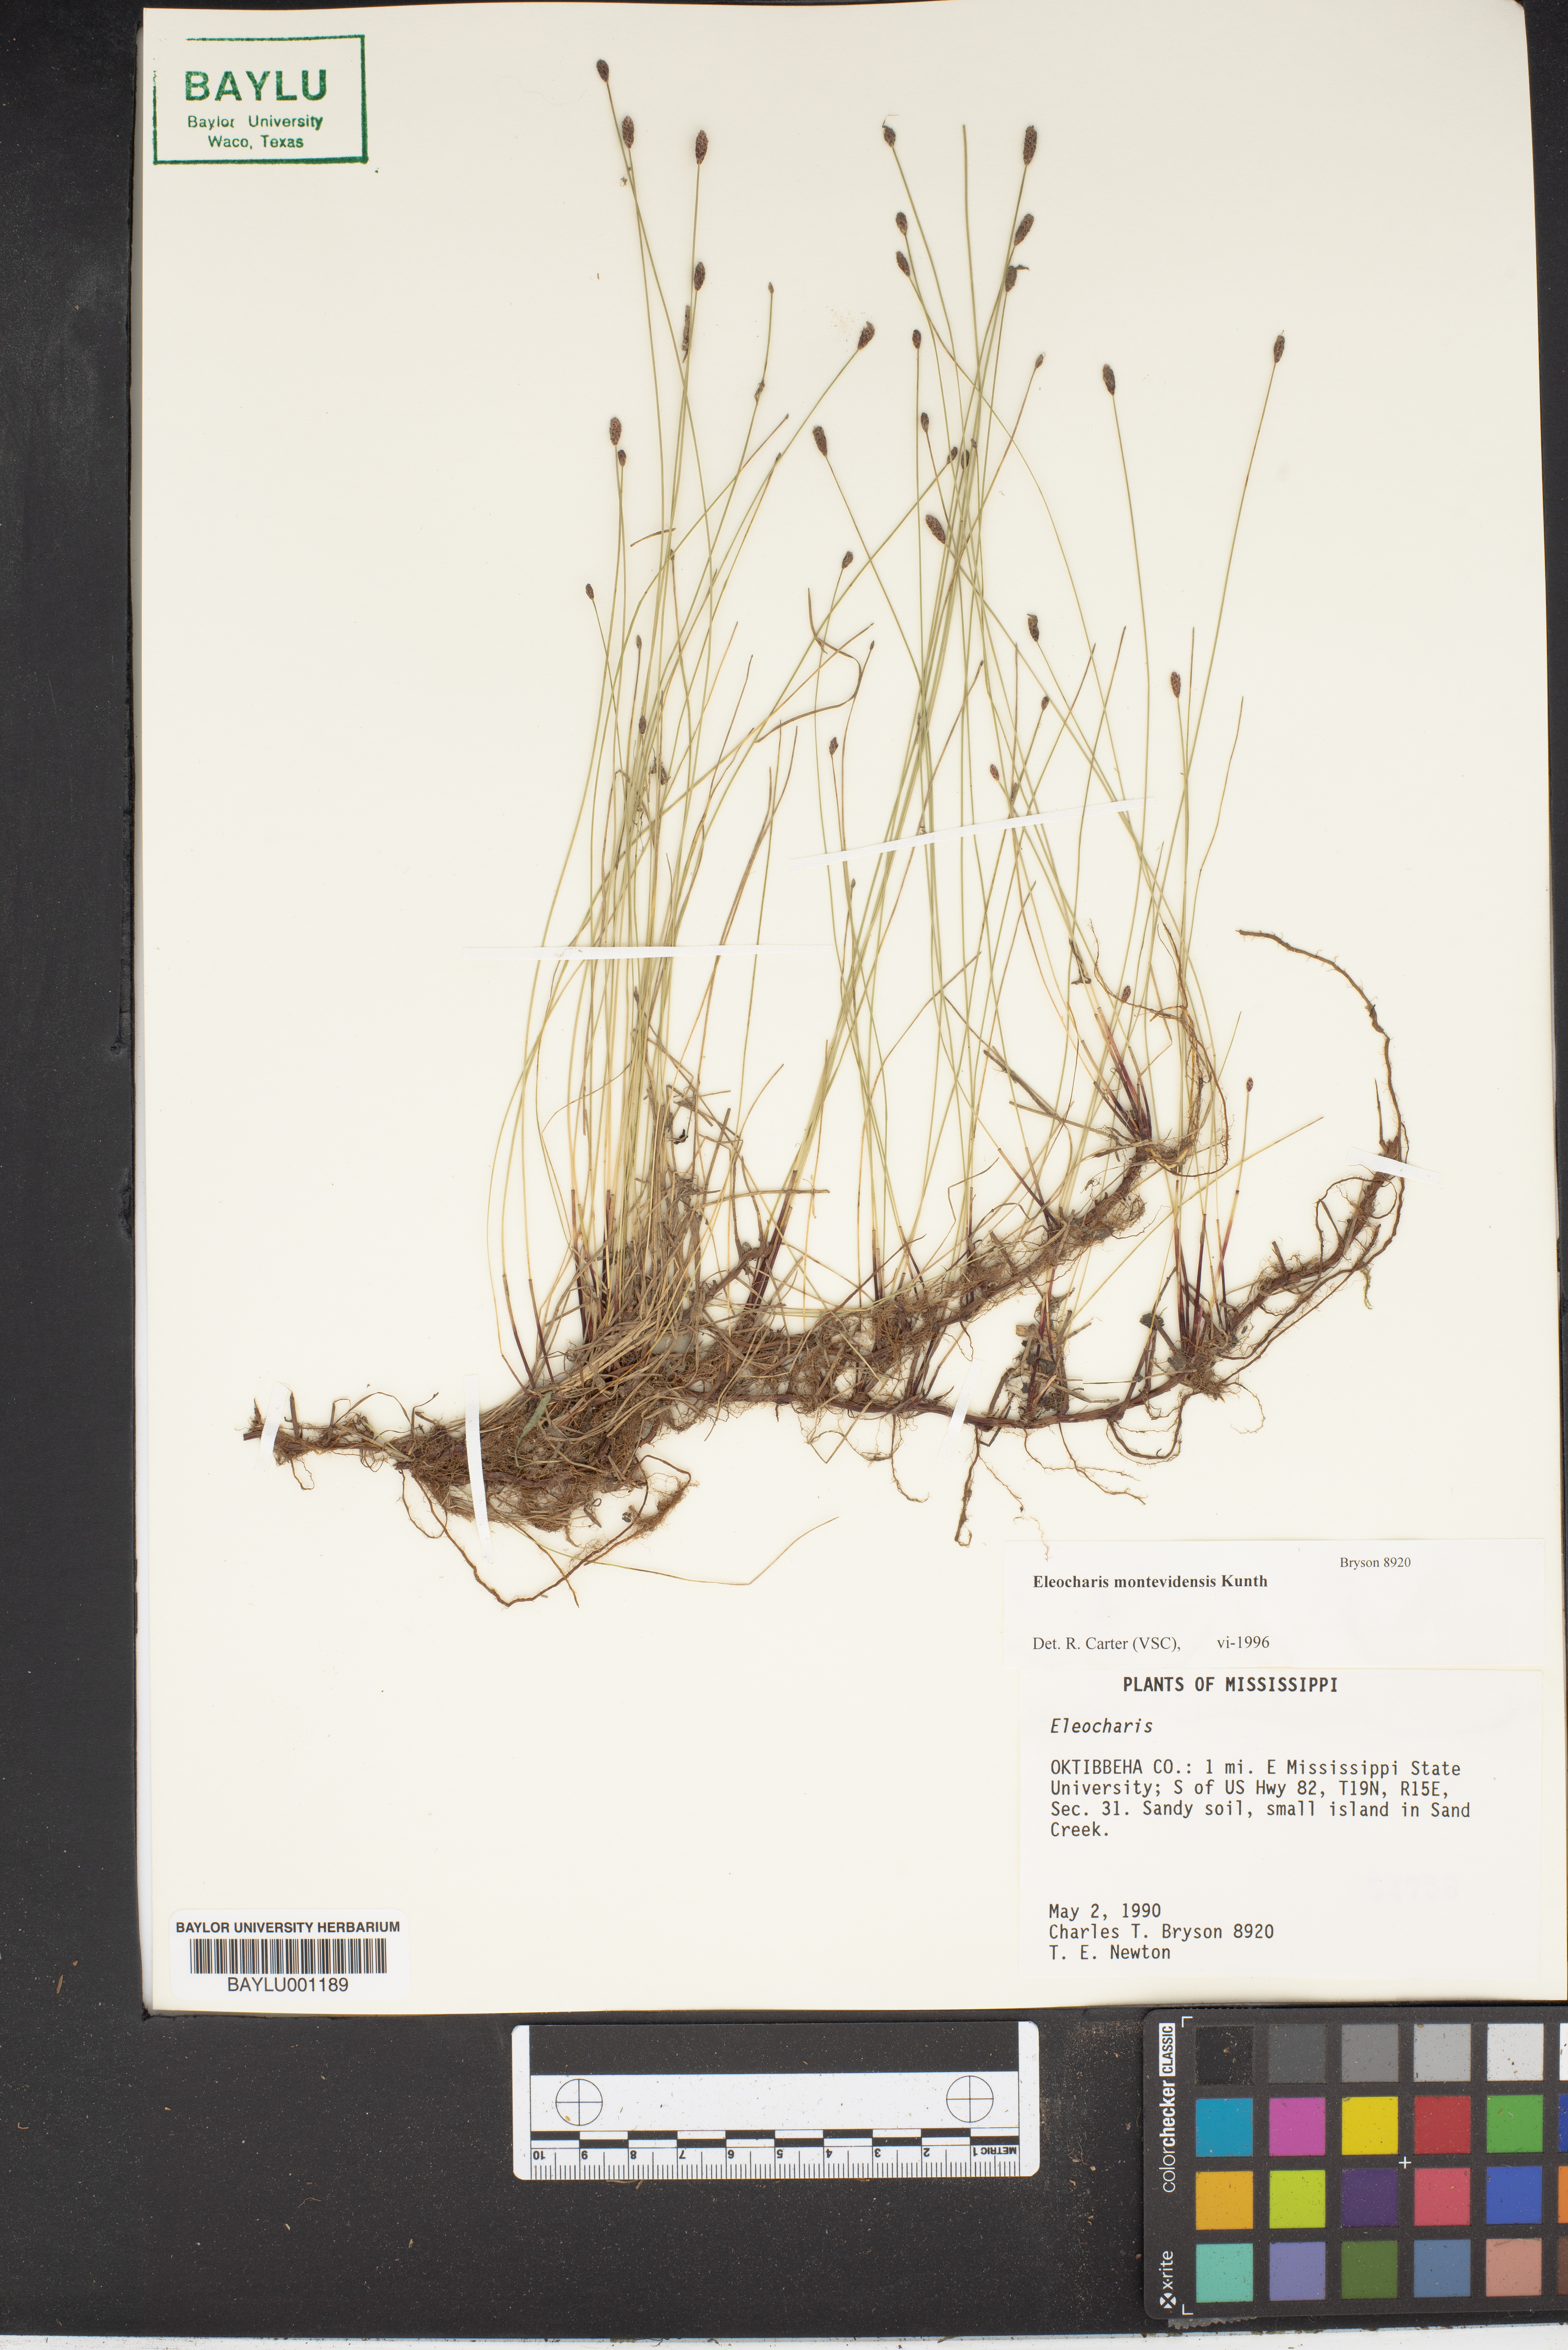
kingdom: Plantae
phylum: Tracheophyta
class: Liliopsida
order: Poales
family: Cyperaceae
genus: Eleocharis
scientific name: Eleocharis
